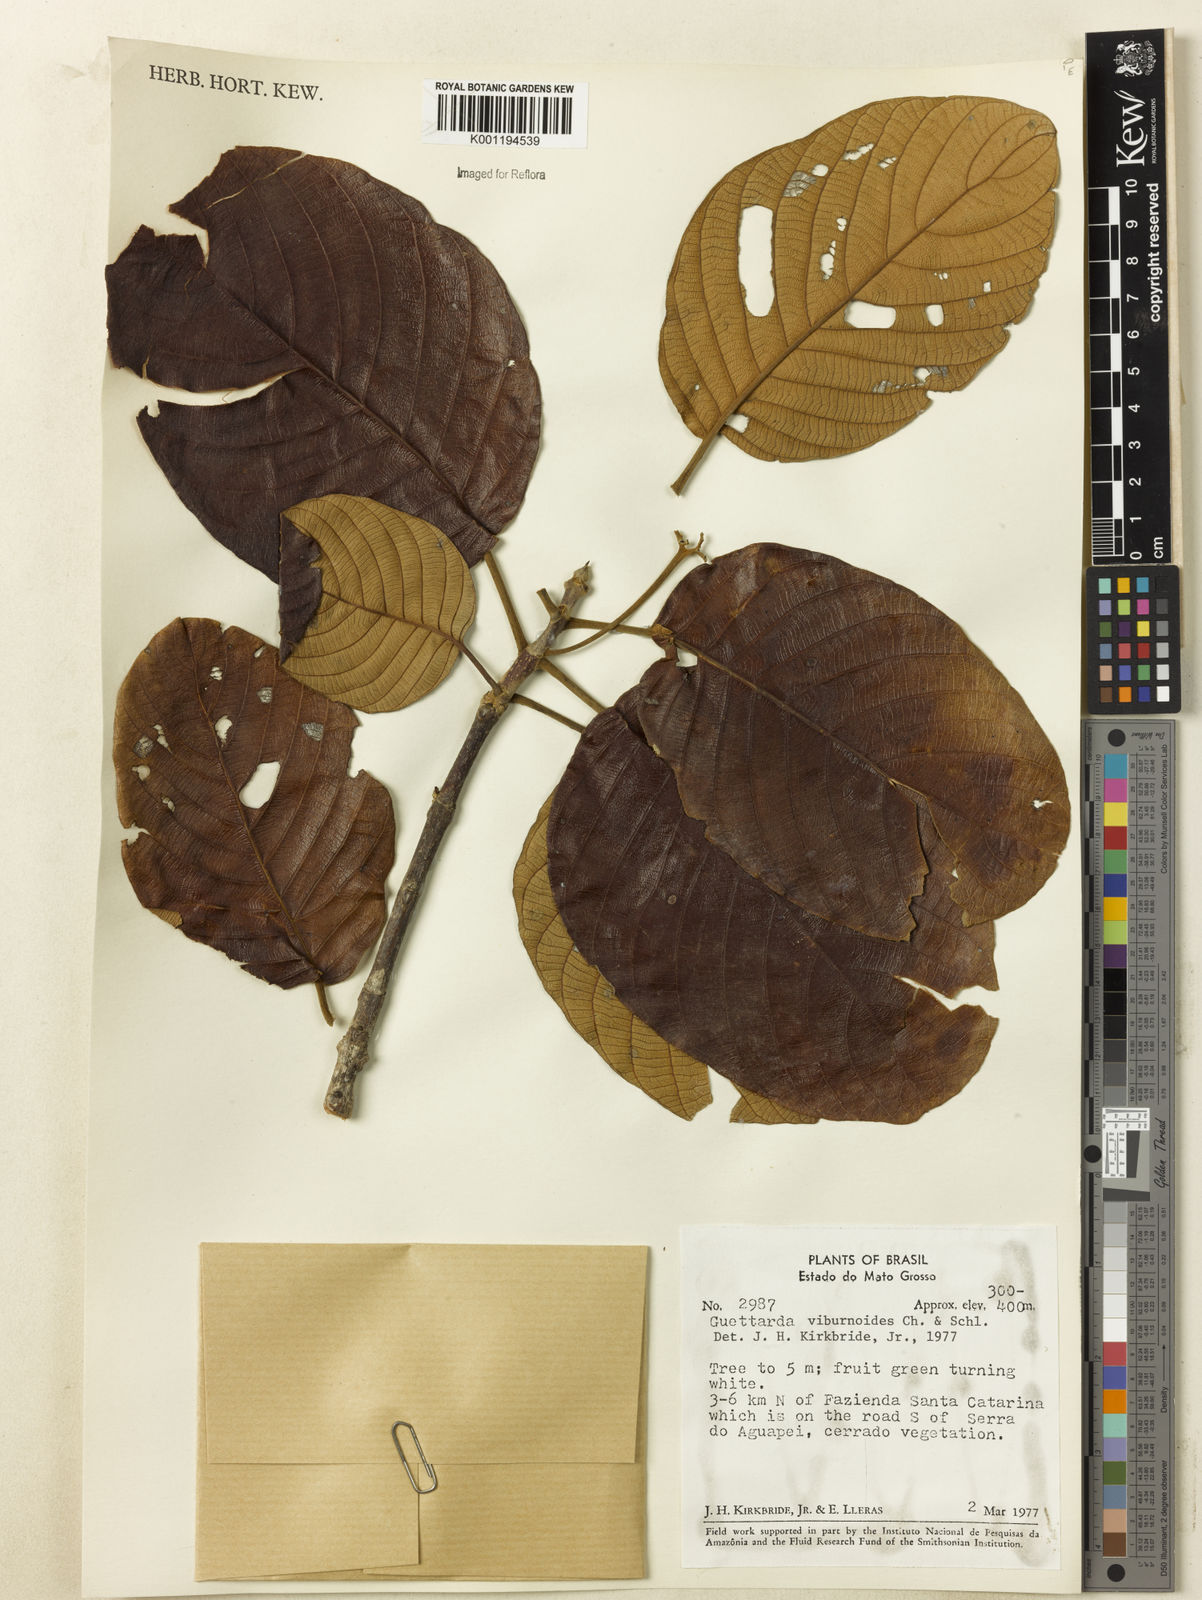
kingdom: Plantae
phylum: Tracheophyta
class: Magnoliopsida
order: Gentianales
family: Rubiaceae
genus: Guettarda
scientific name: Guettarda viburnoides
